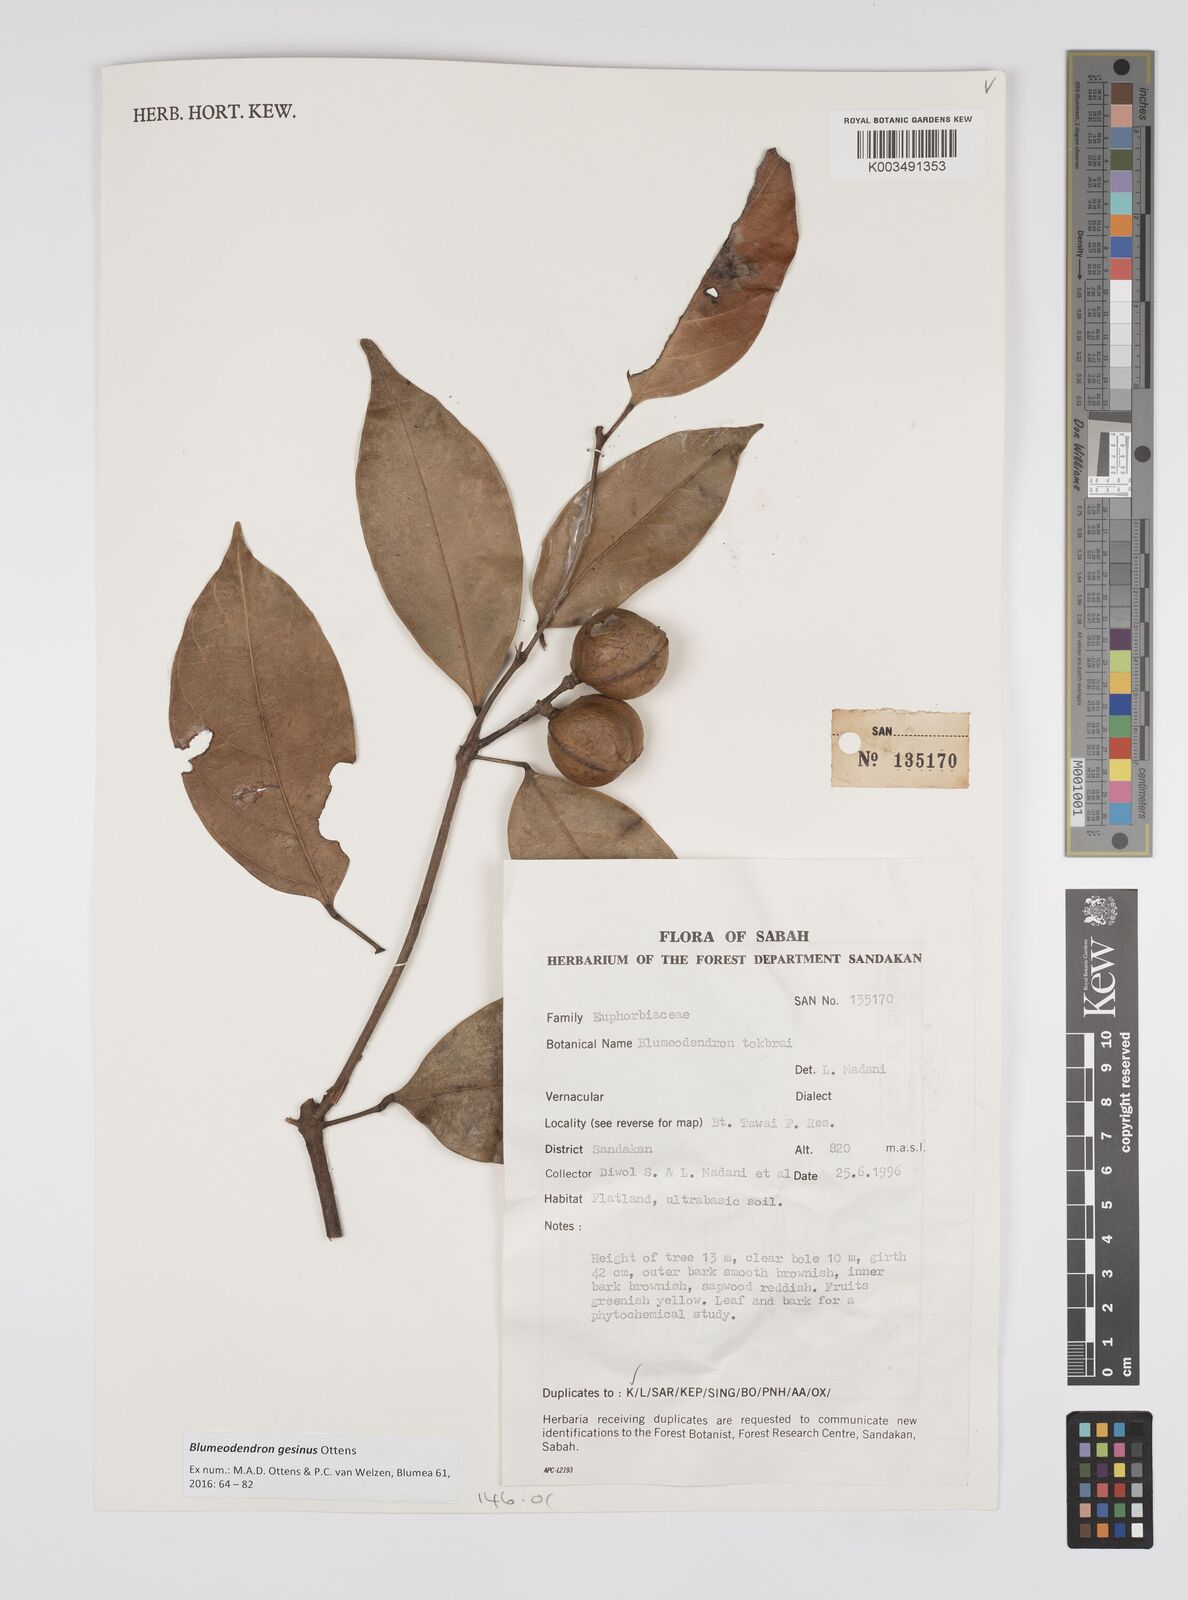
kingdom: Plantae
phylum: Tracheophyta
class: Magnoliopsida
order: Malpighiales
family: Euphorbiaceae
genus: Blumeodendron
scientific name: Blumeodendron gesinus
